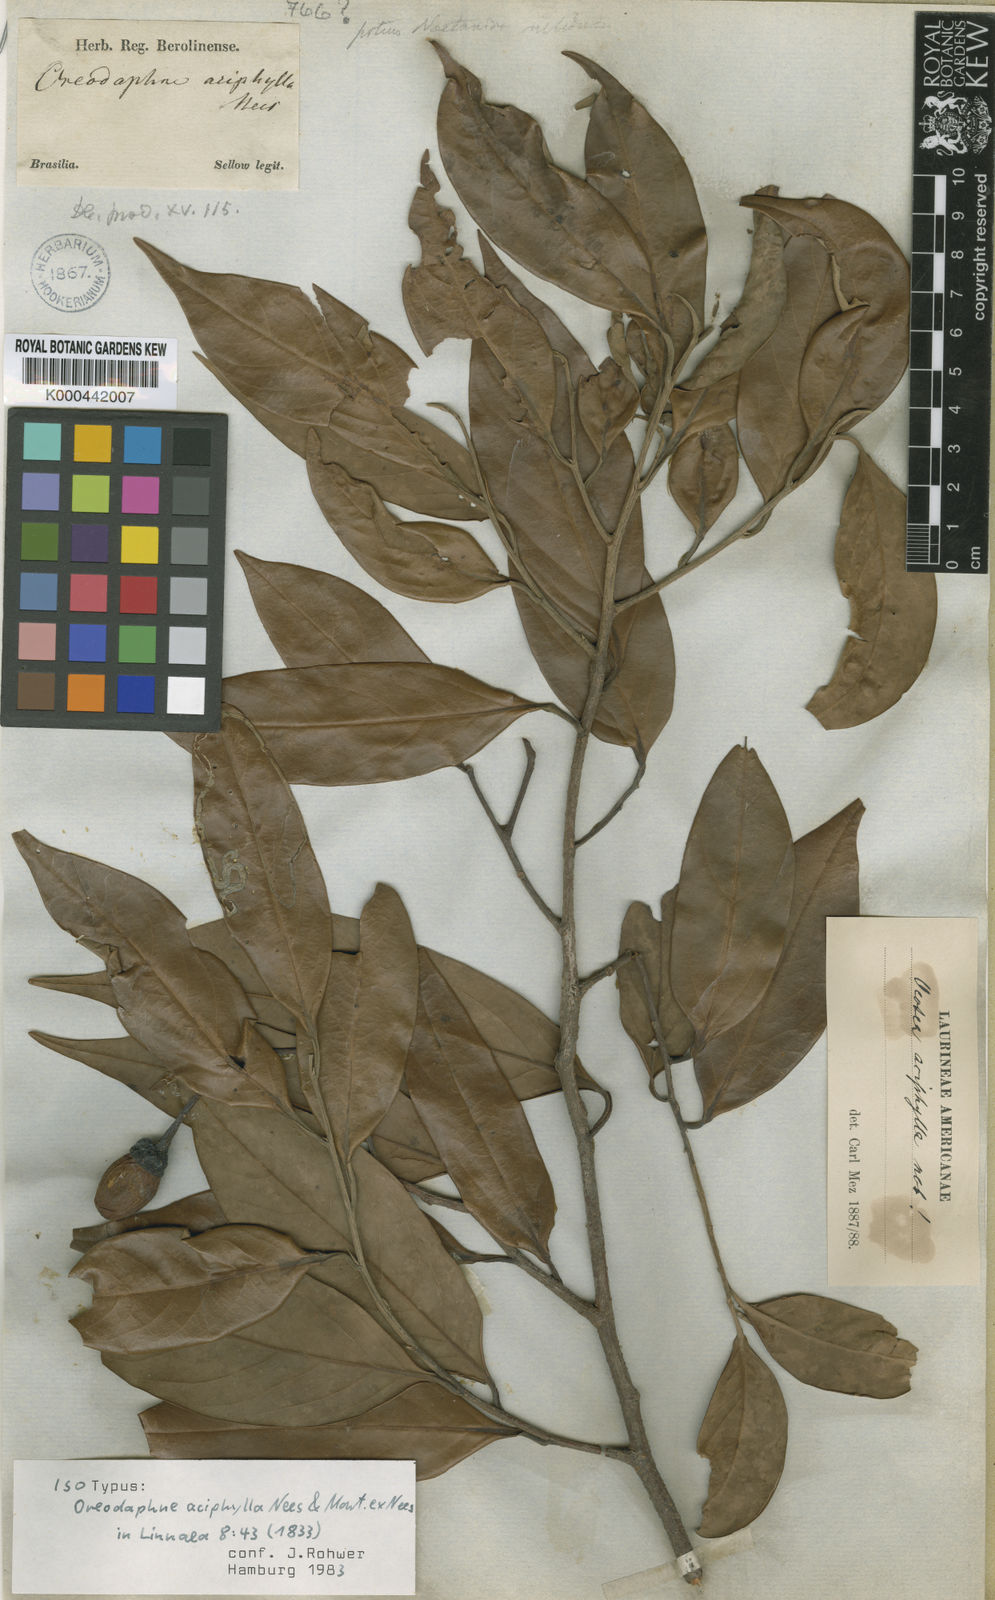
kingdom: Plantae
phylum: Tracheophyta
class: Magnoliopsida
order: Laurales
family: Lauraceae
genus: Ocotea
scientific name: Ocotea aciphylla
